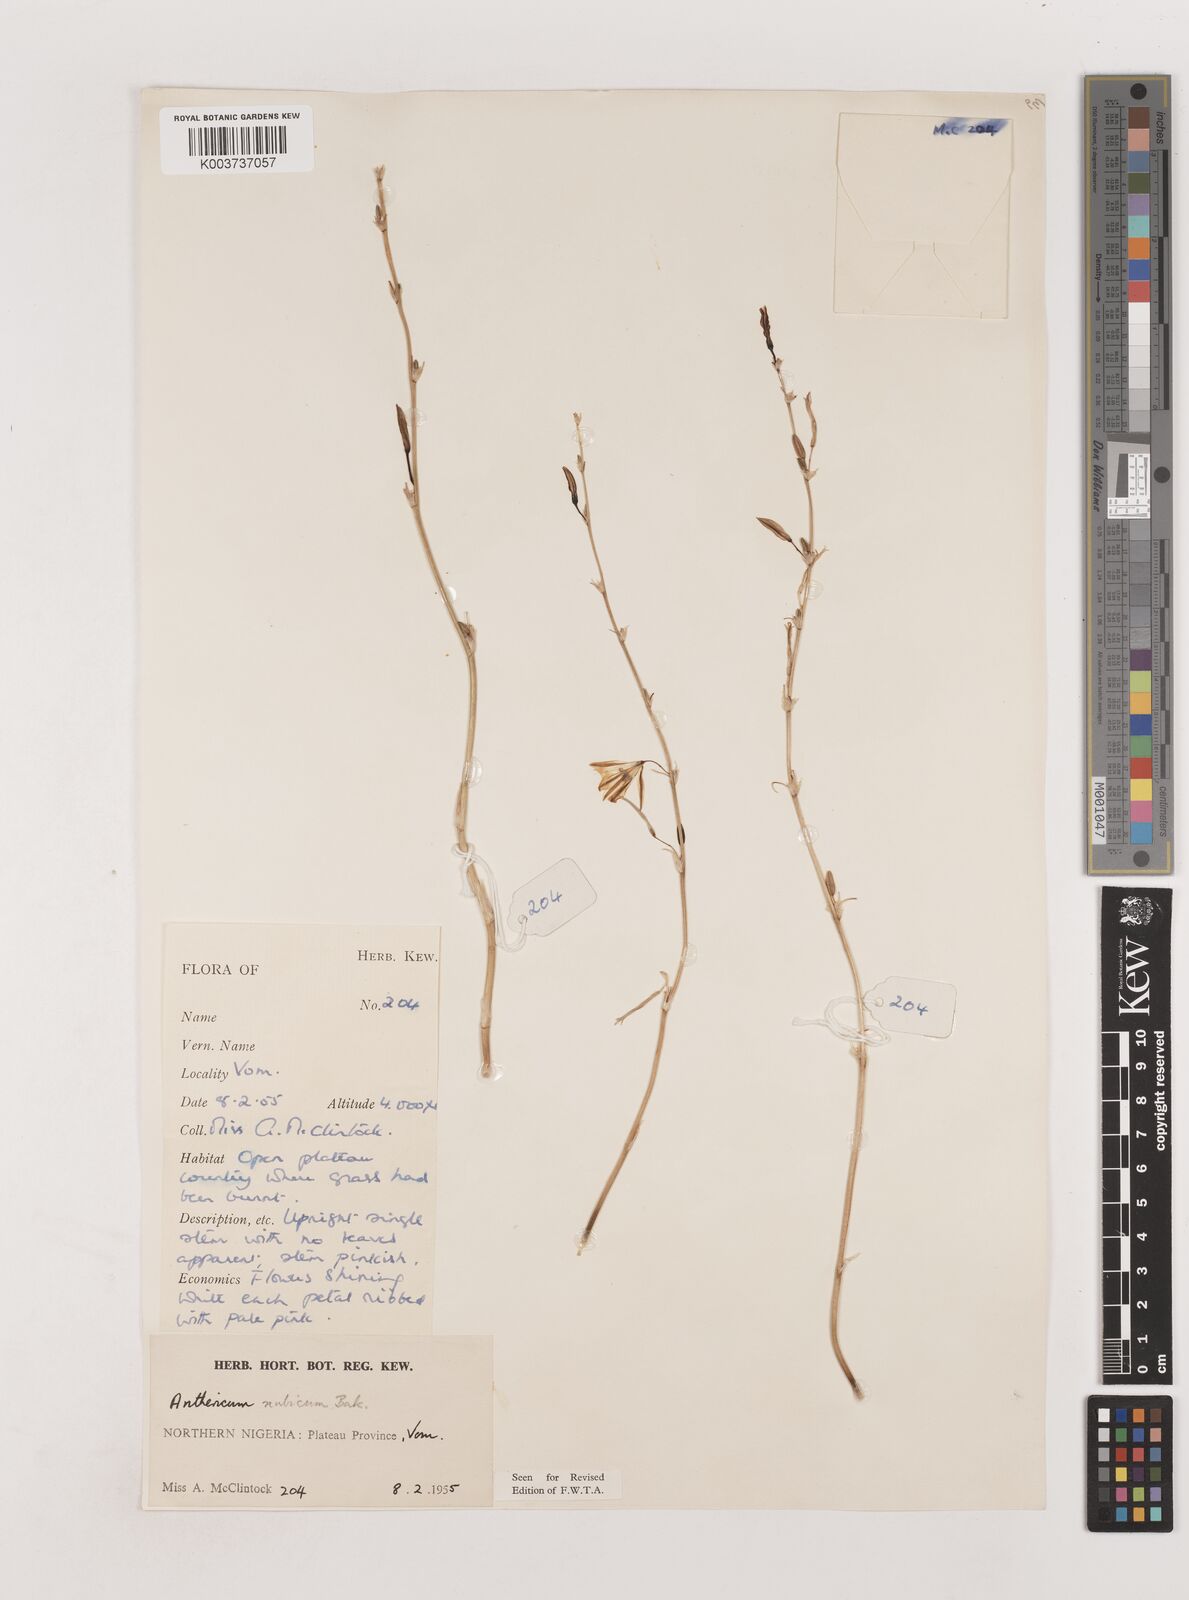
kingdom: Plantae
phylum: Tracheophyta
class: Liliopsida
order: Asparagales
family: Asparagaceae
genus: Chlorophytum
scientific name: Chlorophytum nubicum
